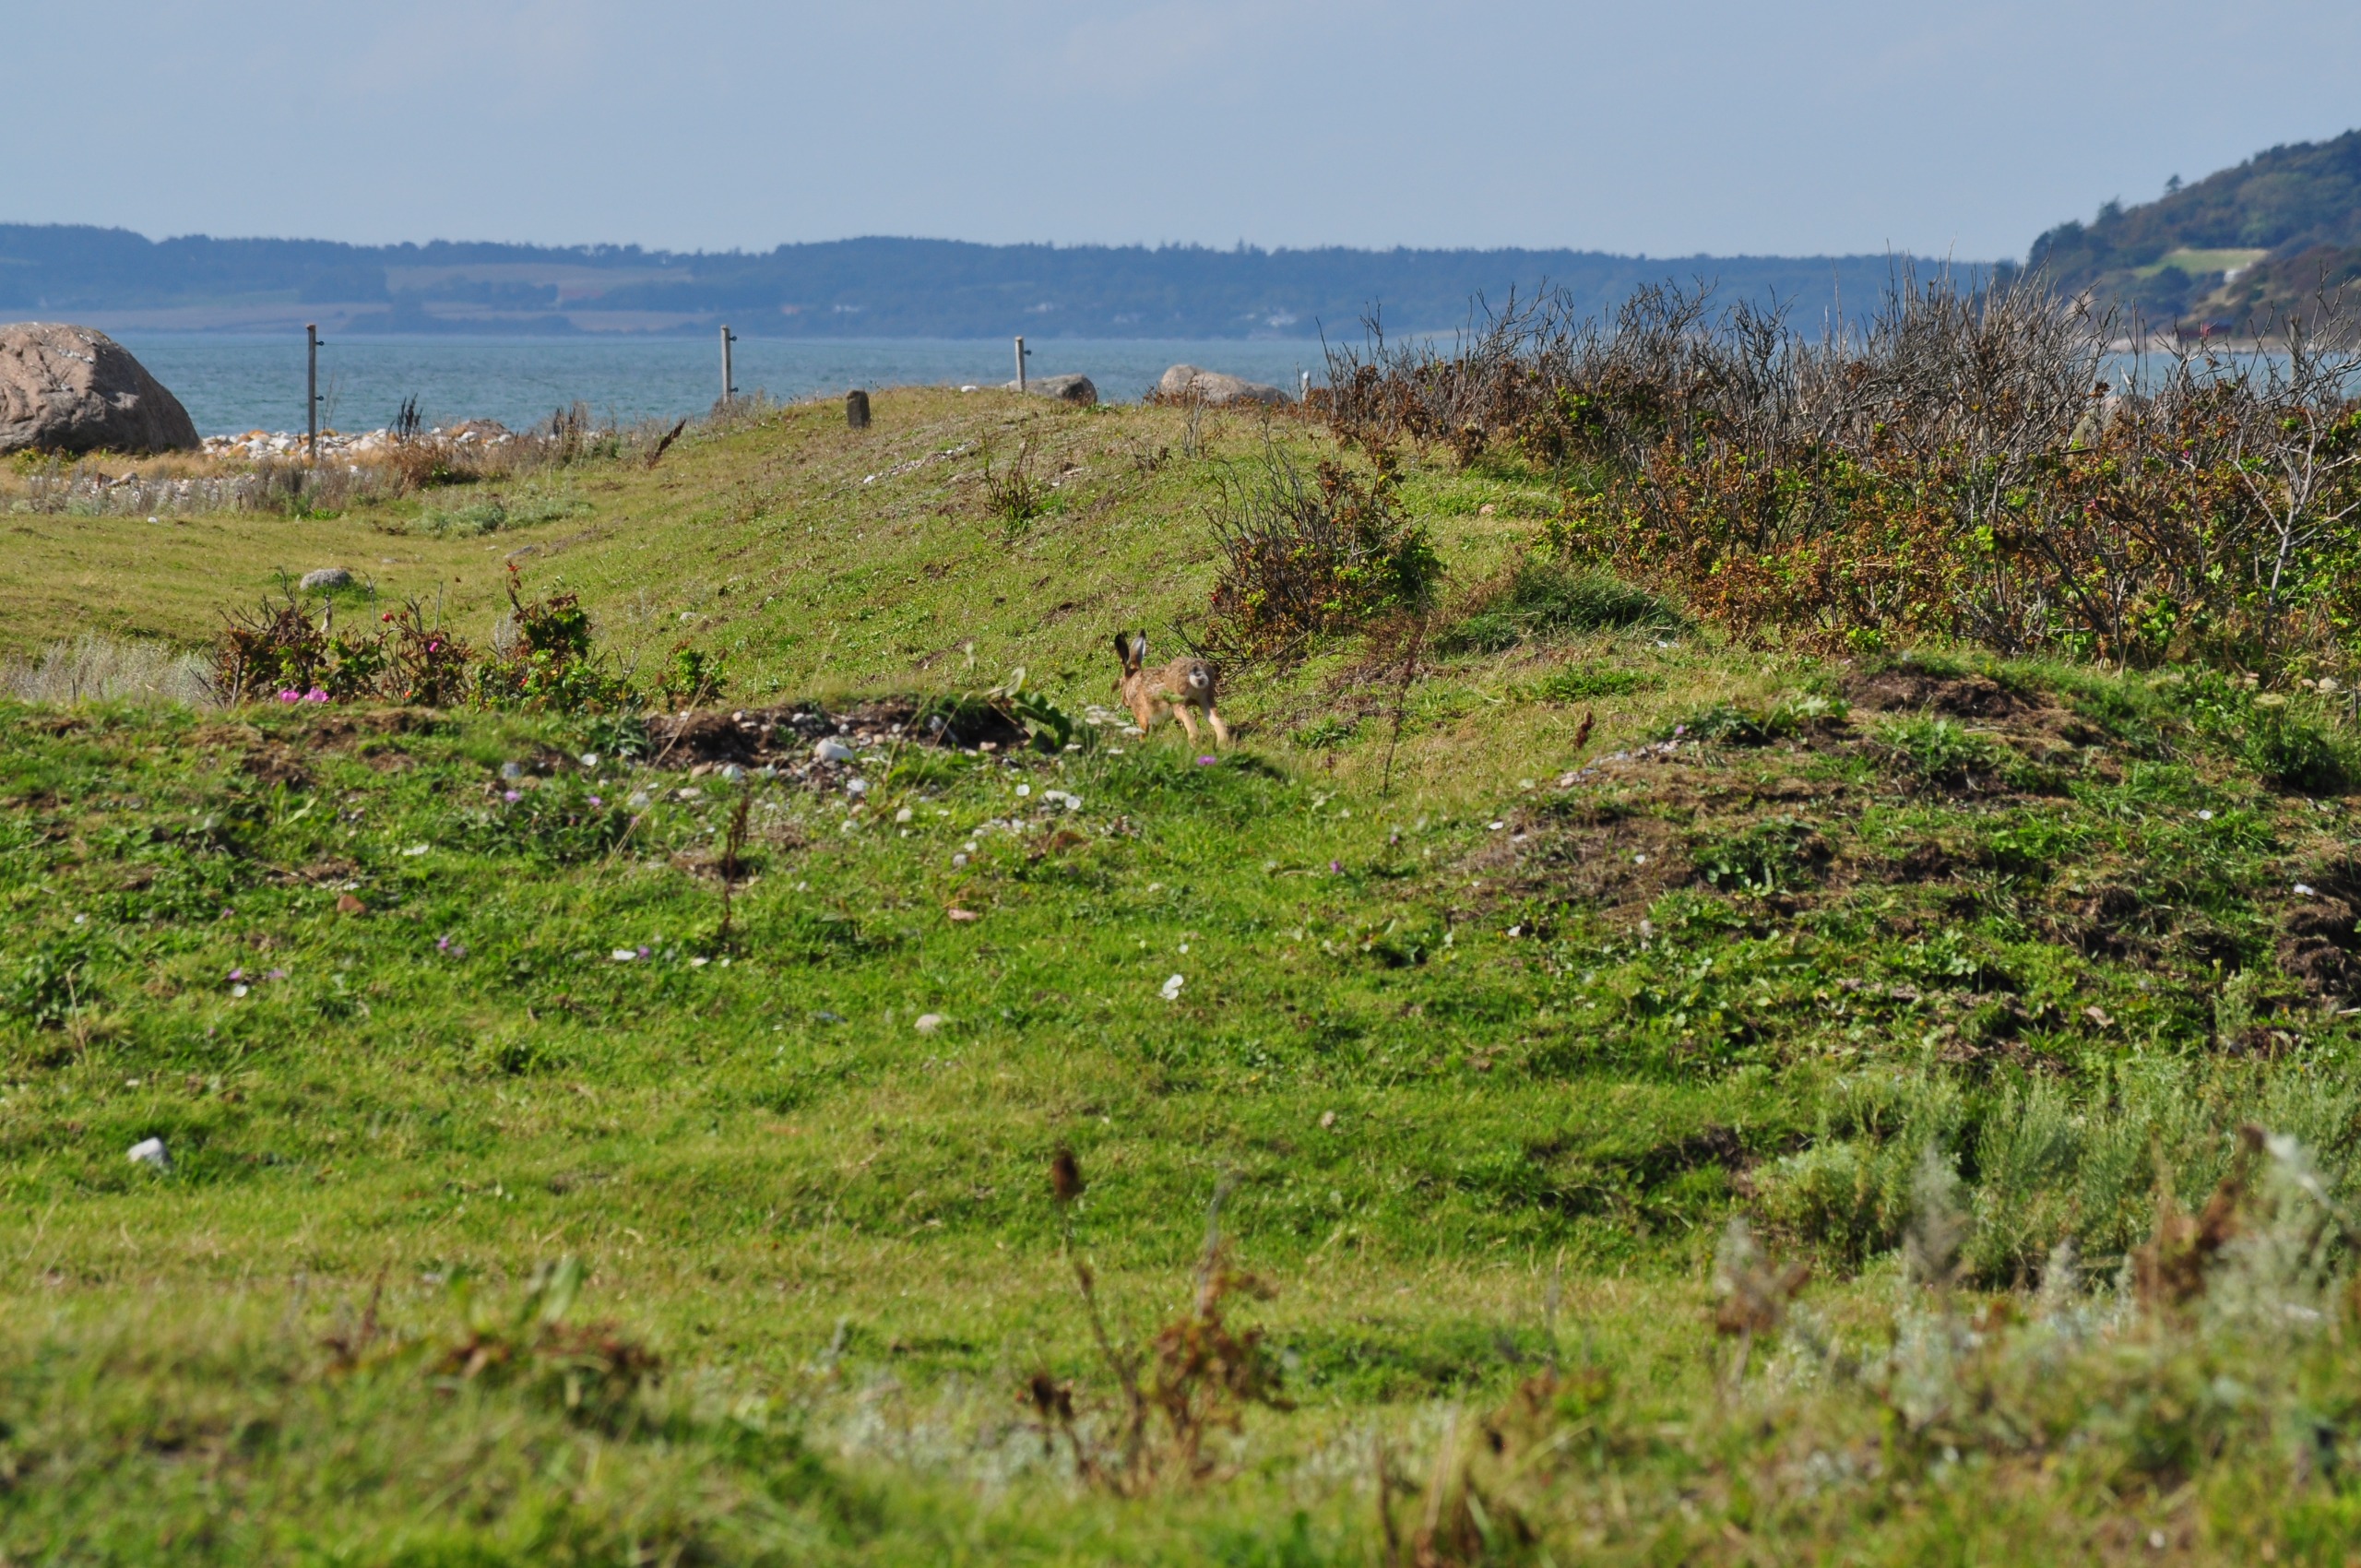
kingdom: Animalia
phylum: Chordata
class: Mammalia
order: Lagomorpha
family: Leporidae
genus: Lepus
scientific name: Lepus europaeus
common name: Hare
